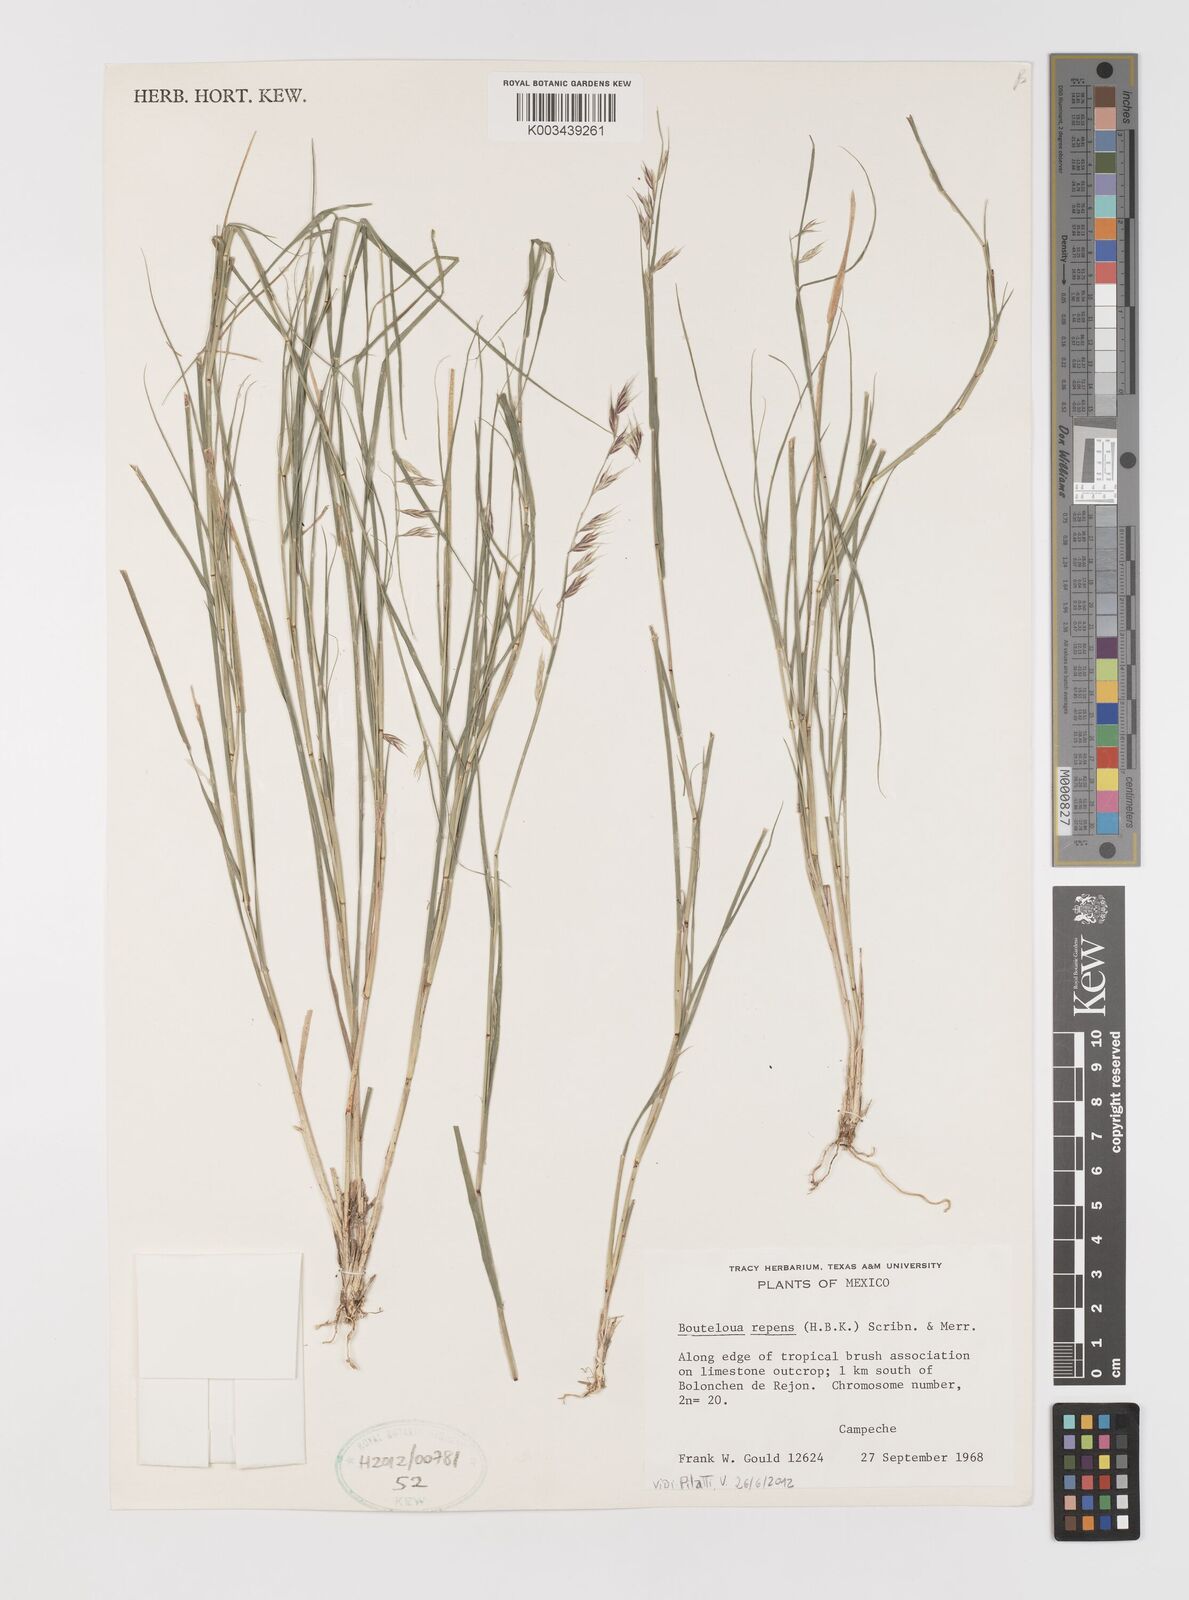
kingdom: Plantae
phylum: Tracheophyta
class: Liliopsida
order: Poales
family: Poaceae
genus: Bouteloua
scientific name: Bouteloua repens
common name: Slender grama
